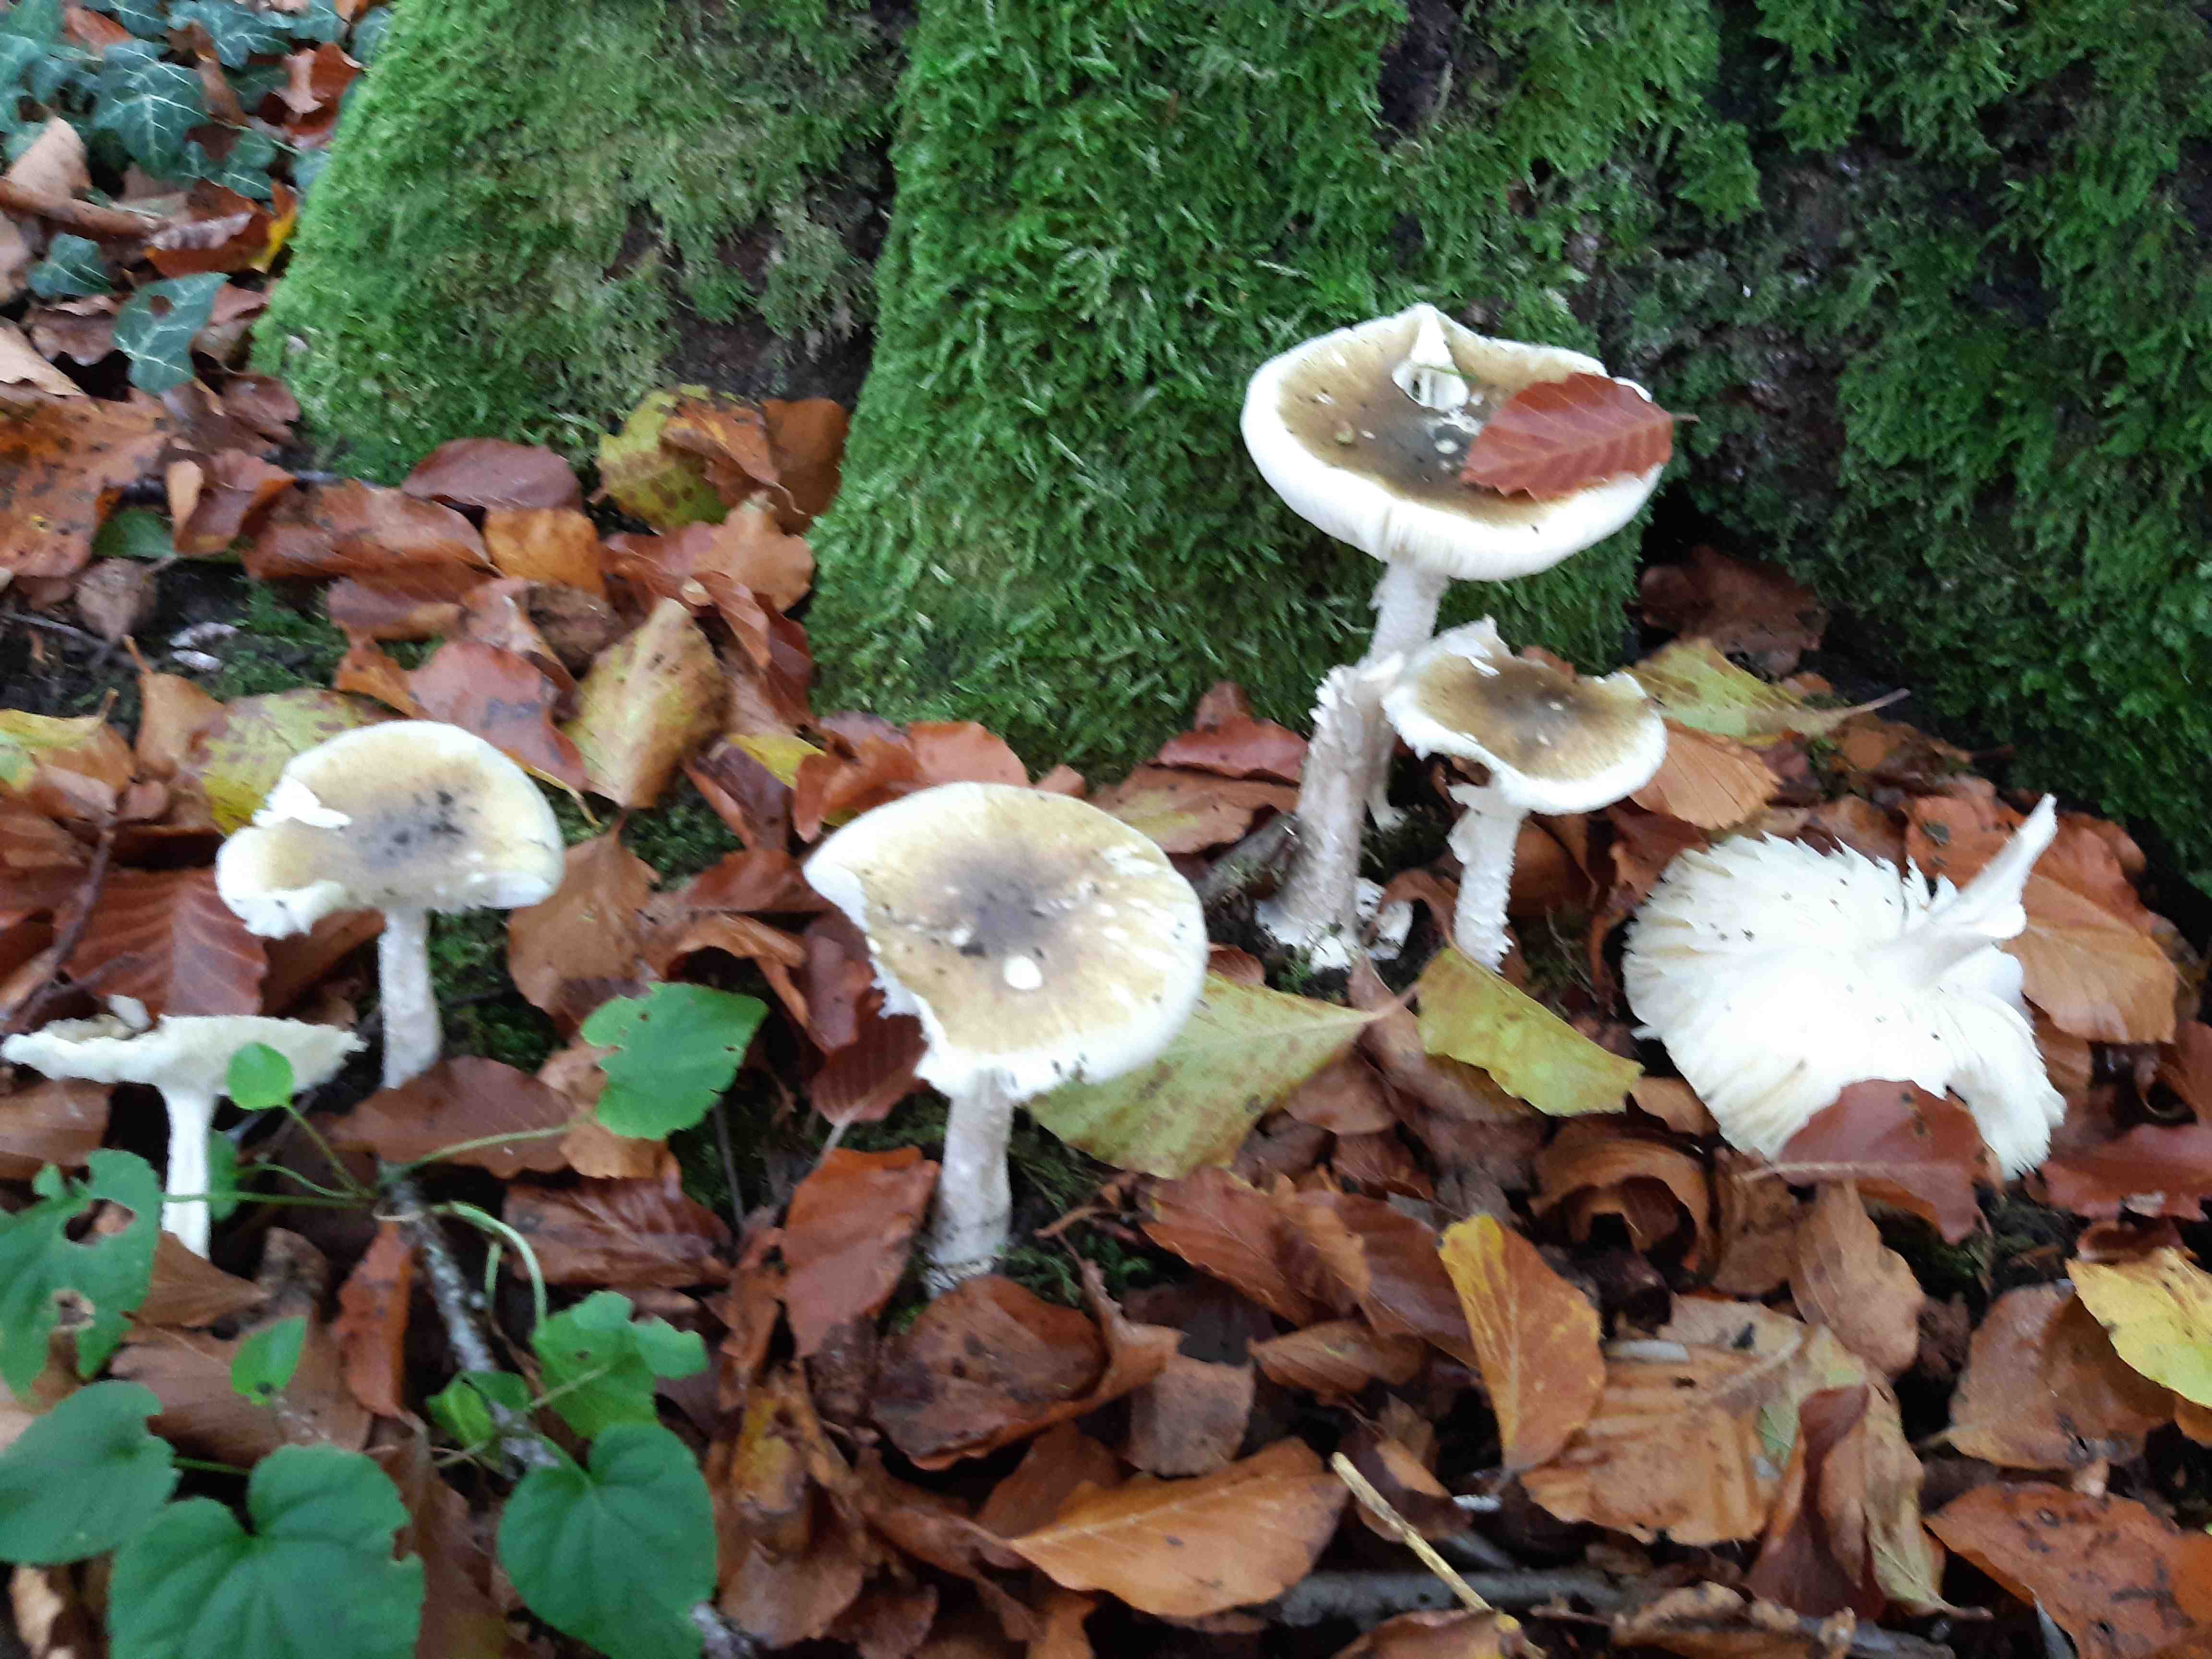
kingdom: Fungi
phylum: Basidiomycota
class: Agaricomycetes
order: Agaricales
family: Amanitaceae
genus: Amanita
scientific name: Amanita phalloides
